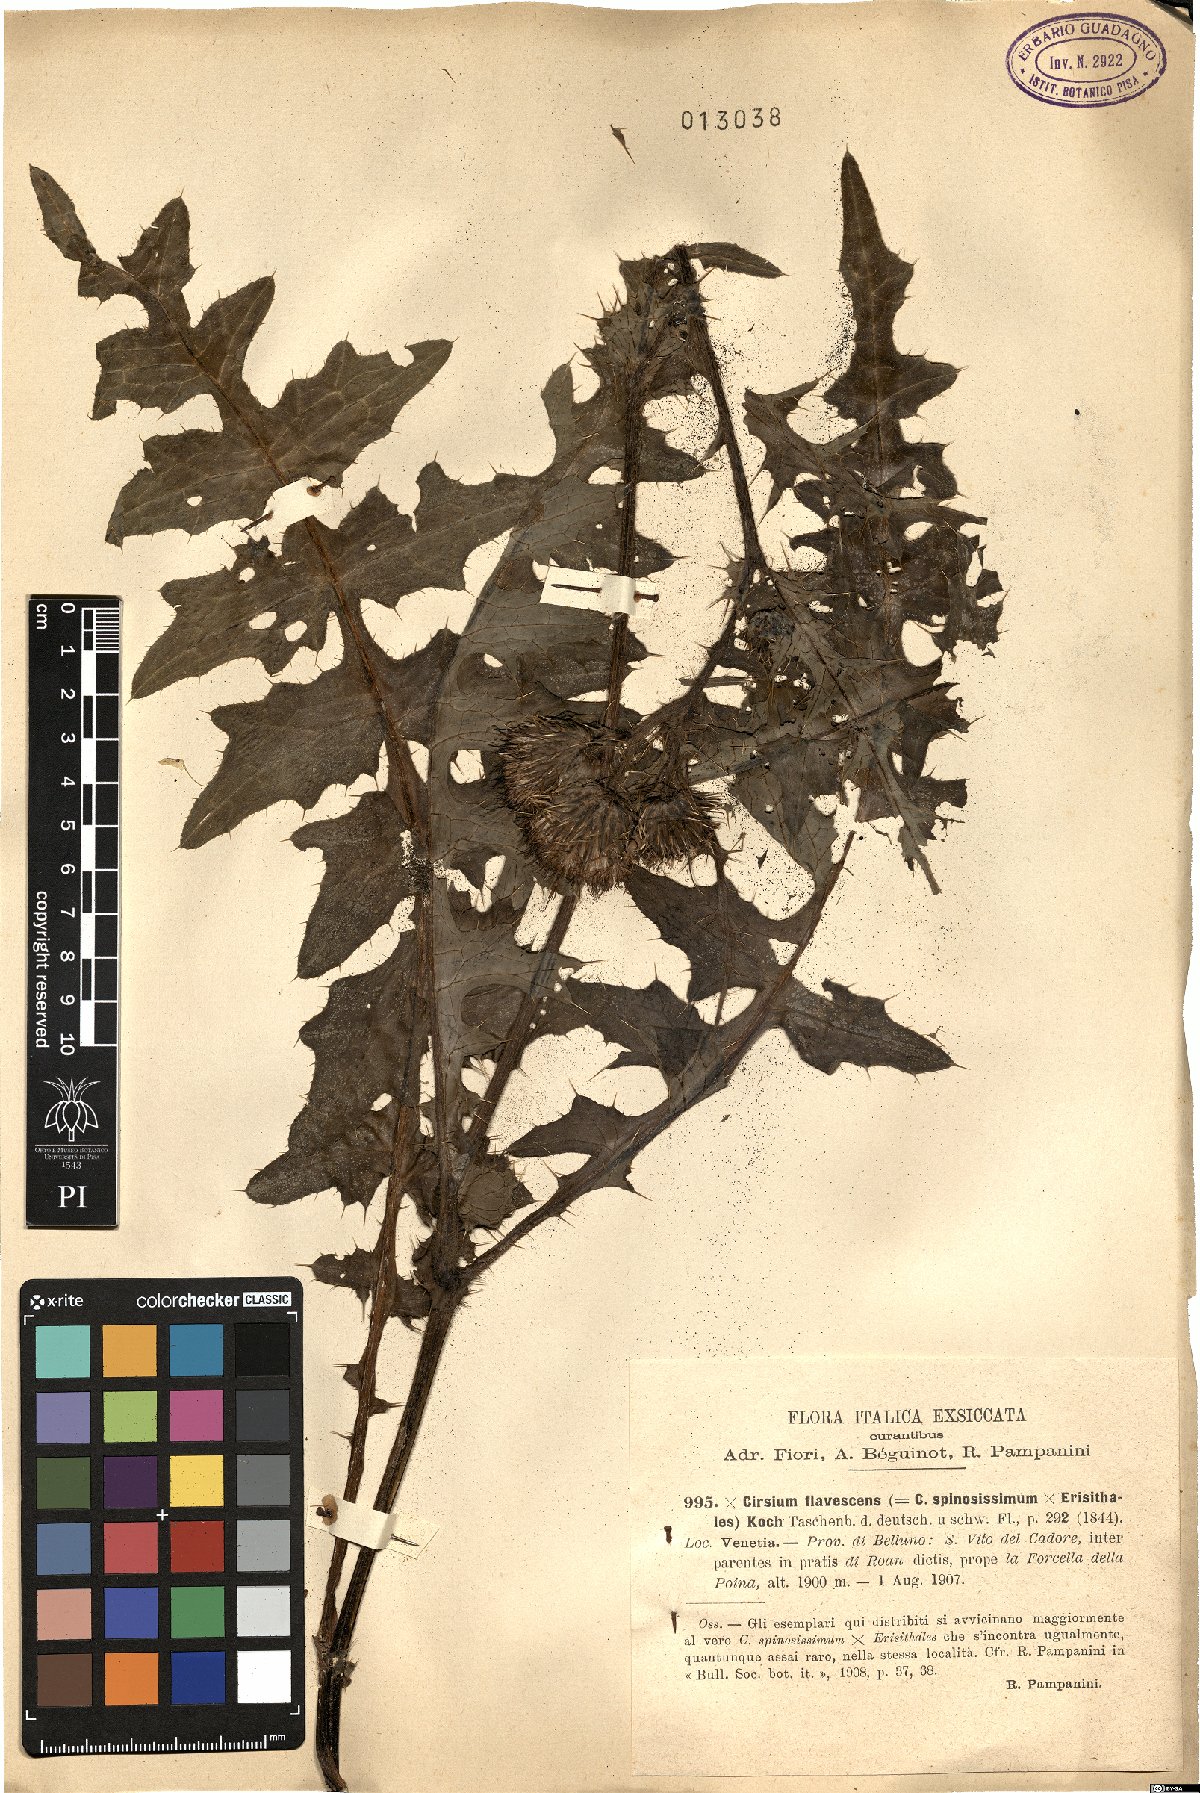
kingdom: Plantae
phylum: Tracheophyta
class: Magnoliopsida
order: Asterales
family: Asteraceae
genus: Cirsium
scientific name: Cirsium erisithales
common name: Yellow thistle
